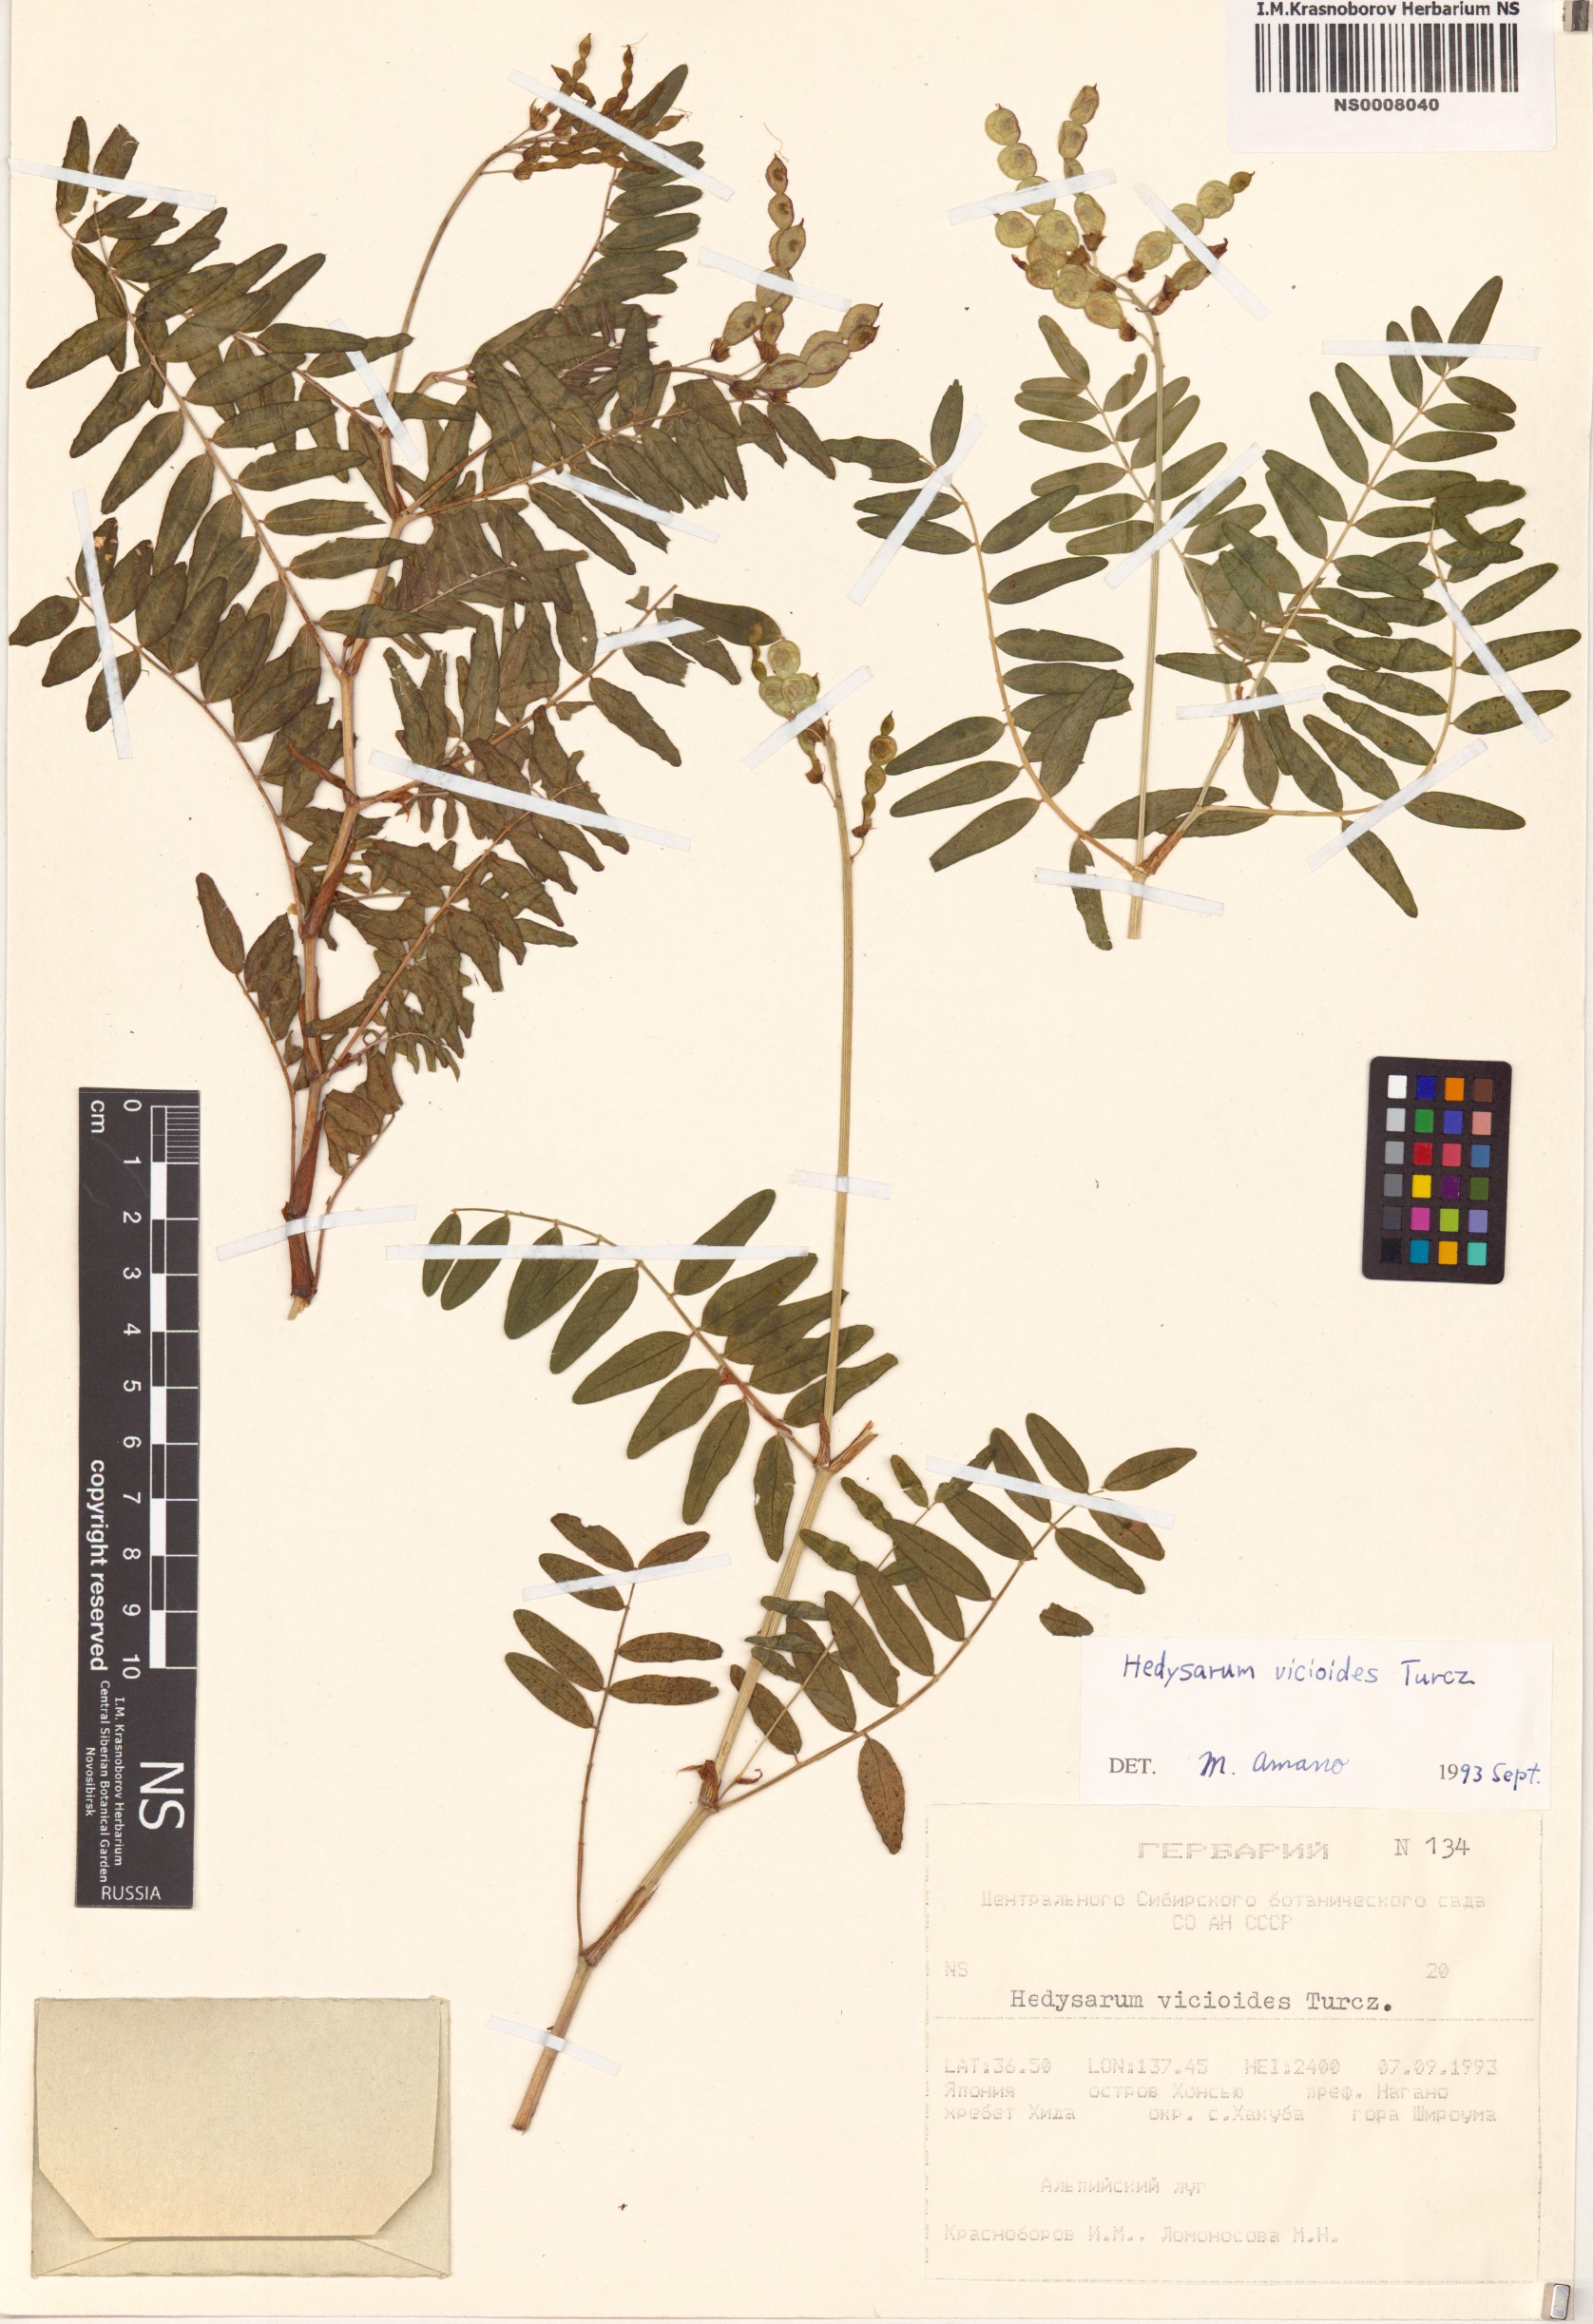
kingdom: Plantae
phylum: Tracheophyta
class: Magnoliopsida
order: Fabales
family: Fabaceae
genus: Hedysarum
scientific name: Hedysarum vicioides
